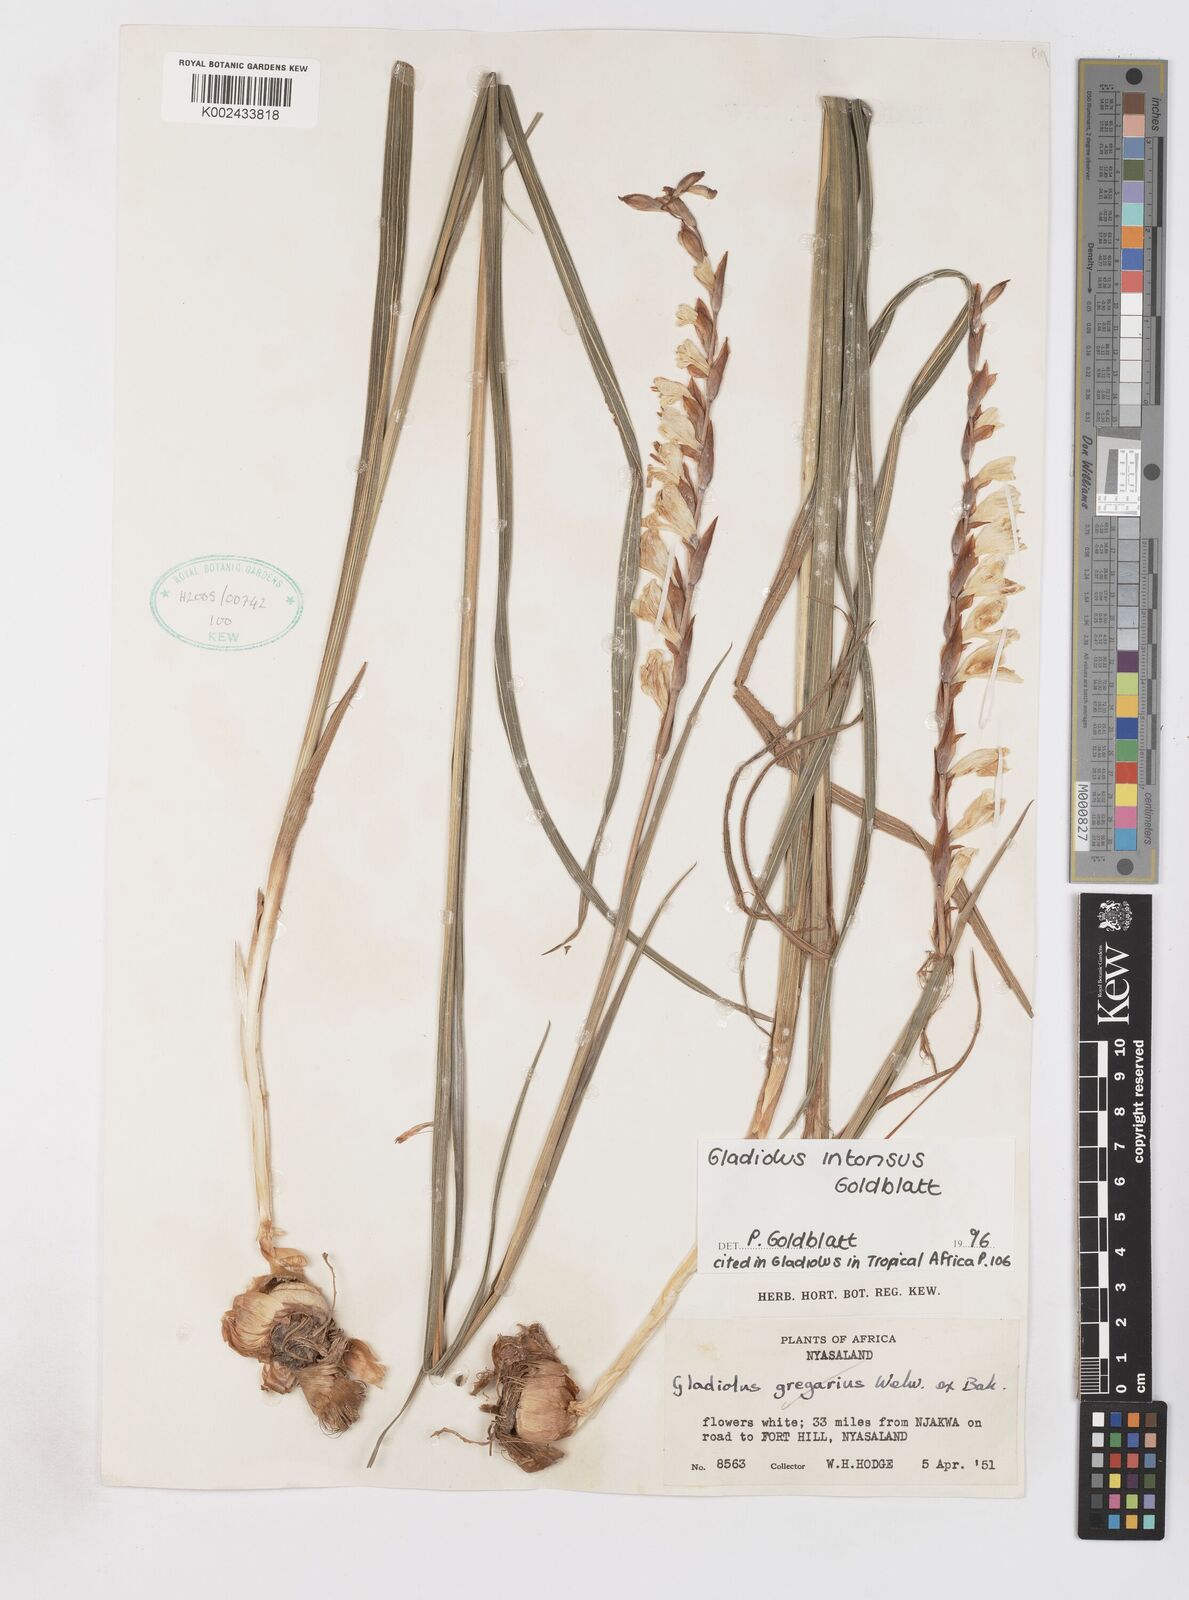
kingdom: Plantae
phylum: Tracheophyta
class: Liliopsida
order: Asparagales
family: Iridaceae
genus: Gladiolus
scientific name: Gladiolus intonsus
